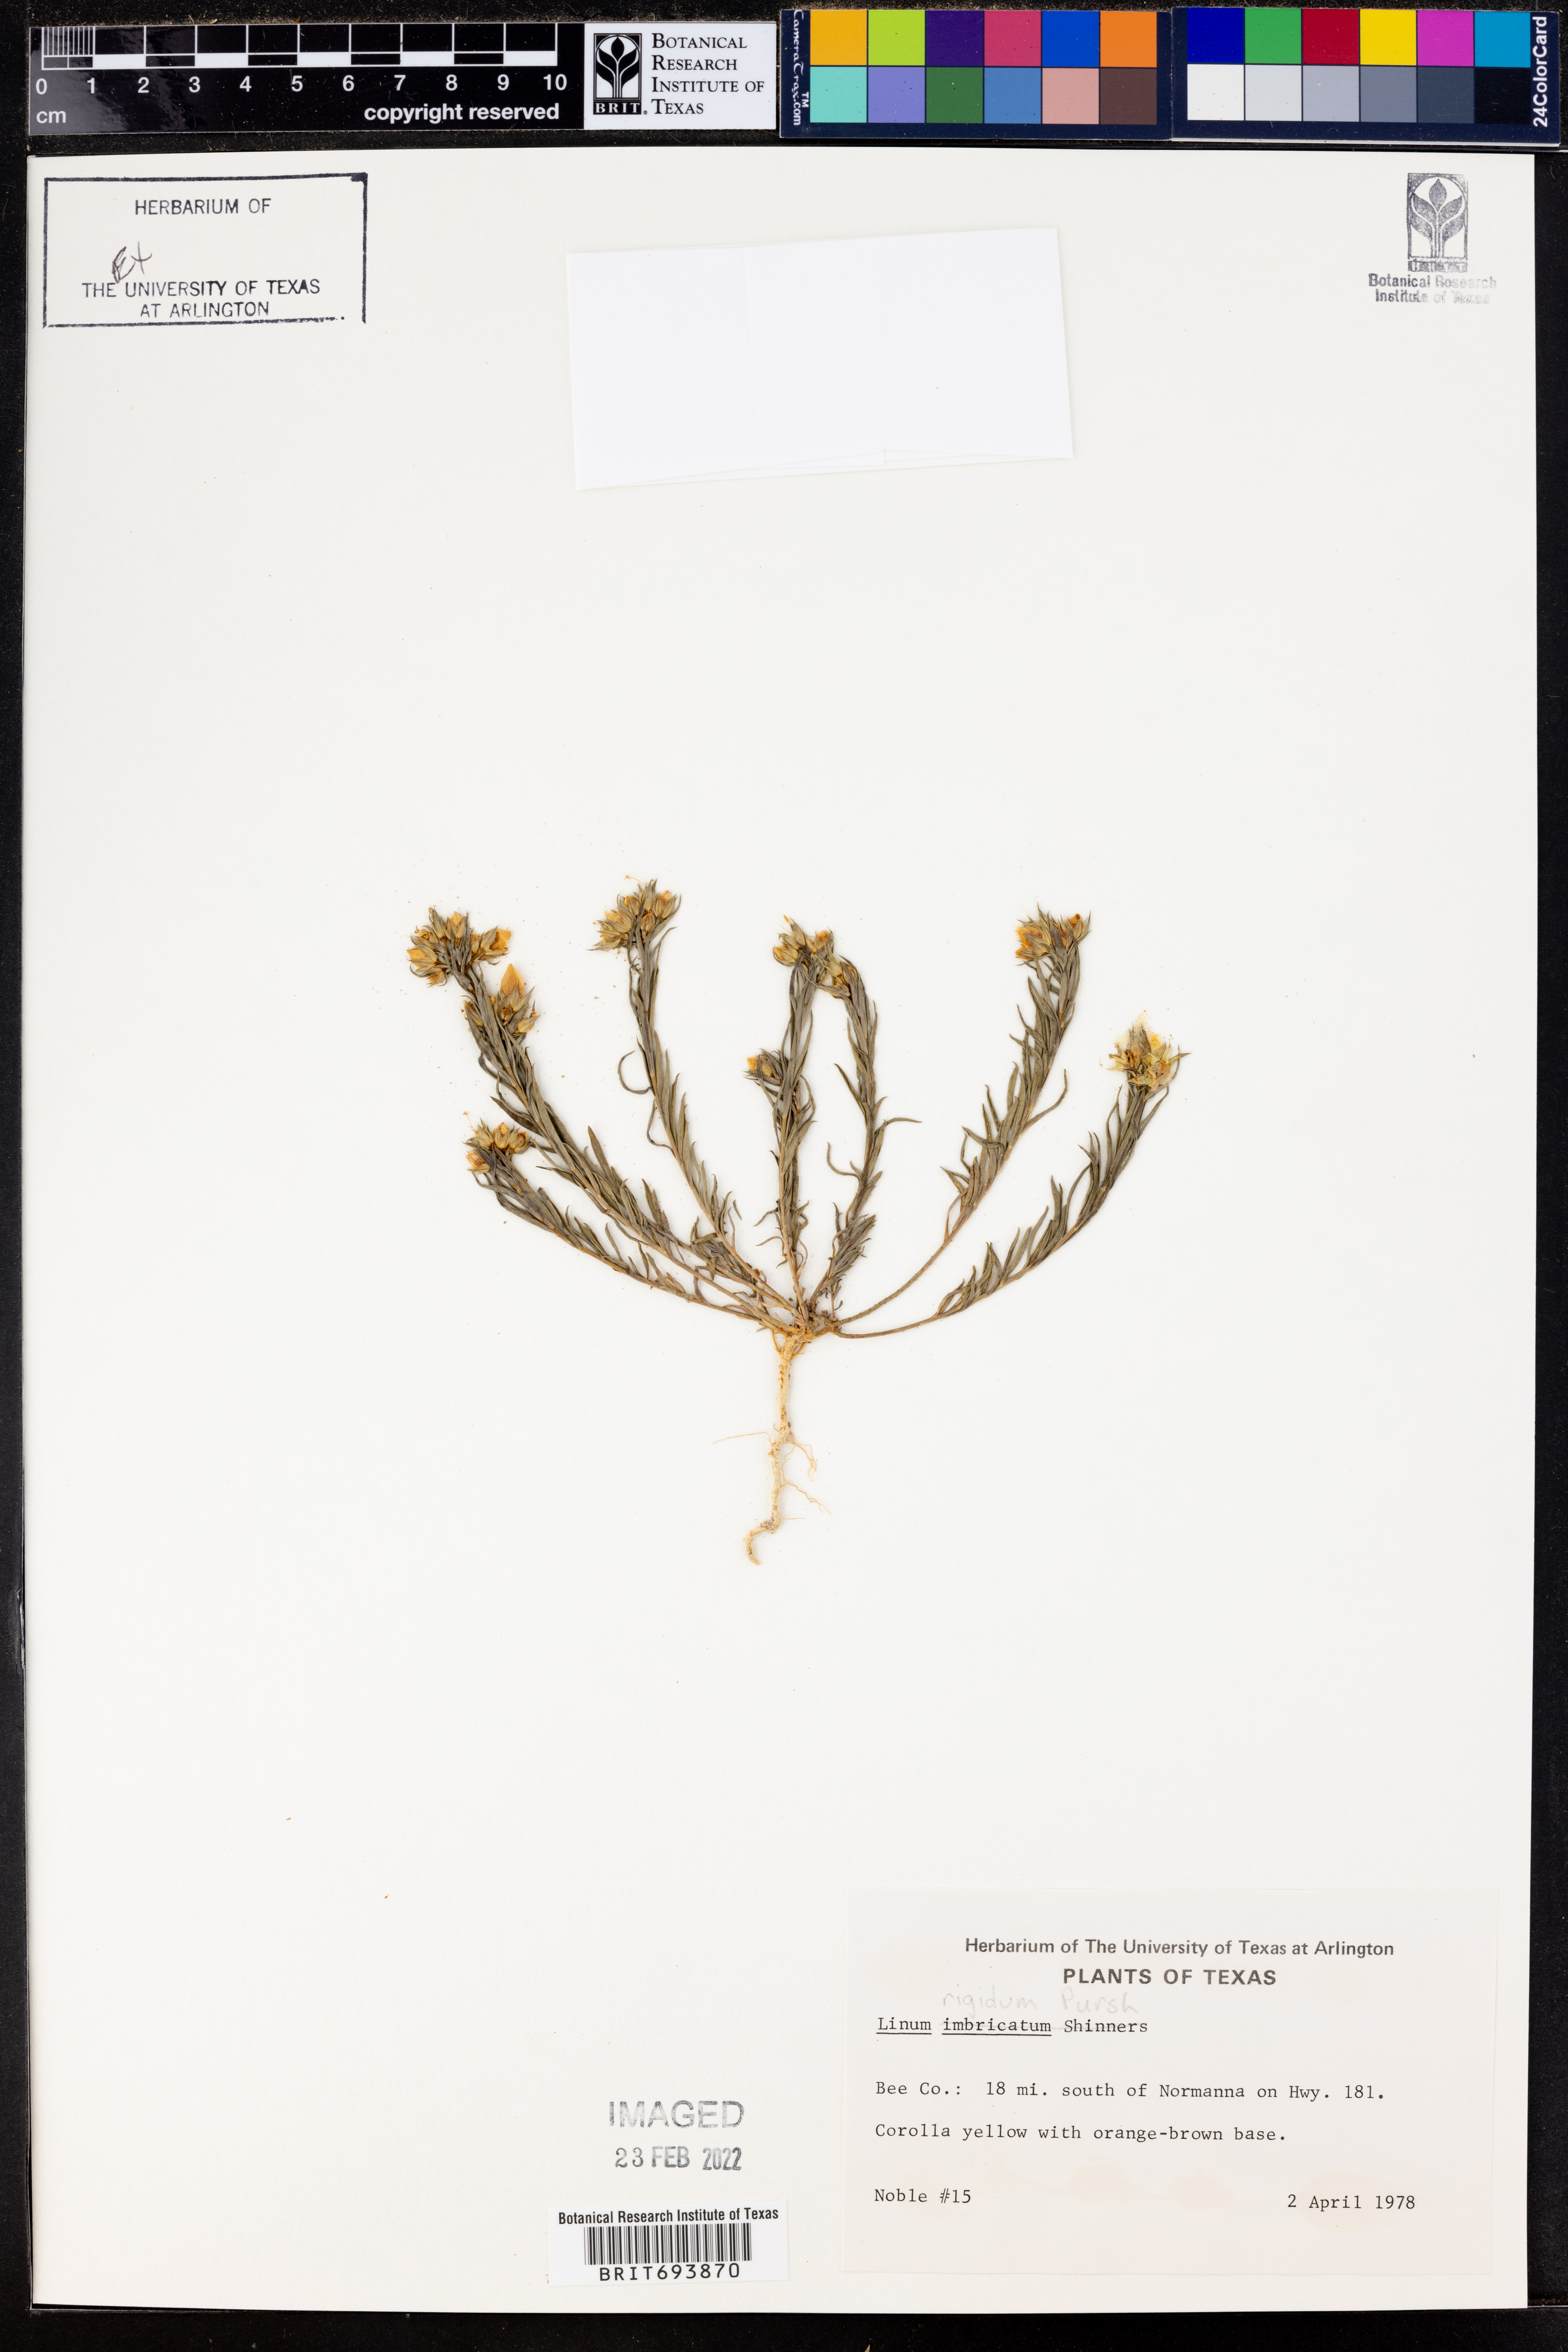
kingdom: Plantae
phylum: Tracheophyta
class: Magnoliopsida
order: Malpighiales
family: Linaceae
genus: Linum
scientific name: Linum rigidum
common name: Stiff-stem flax
